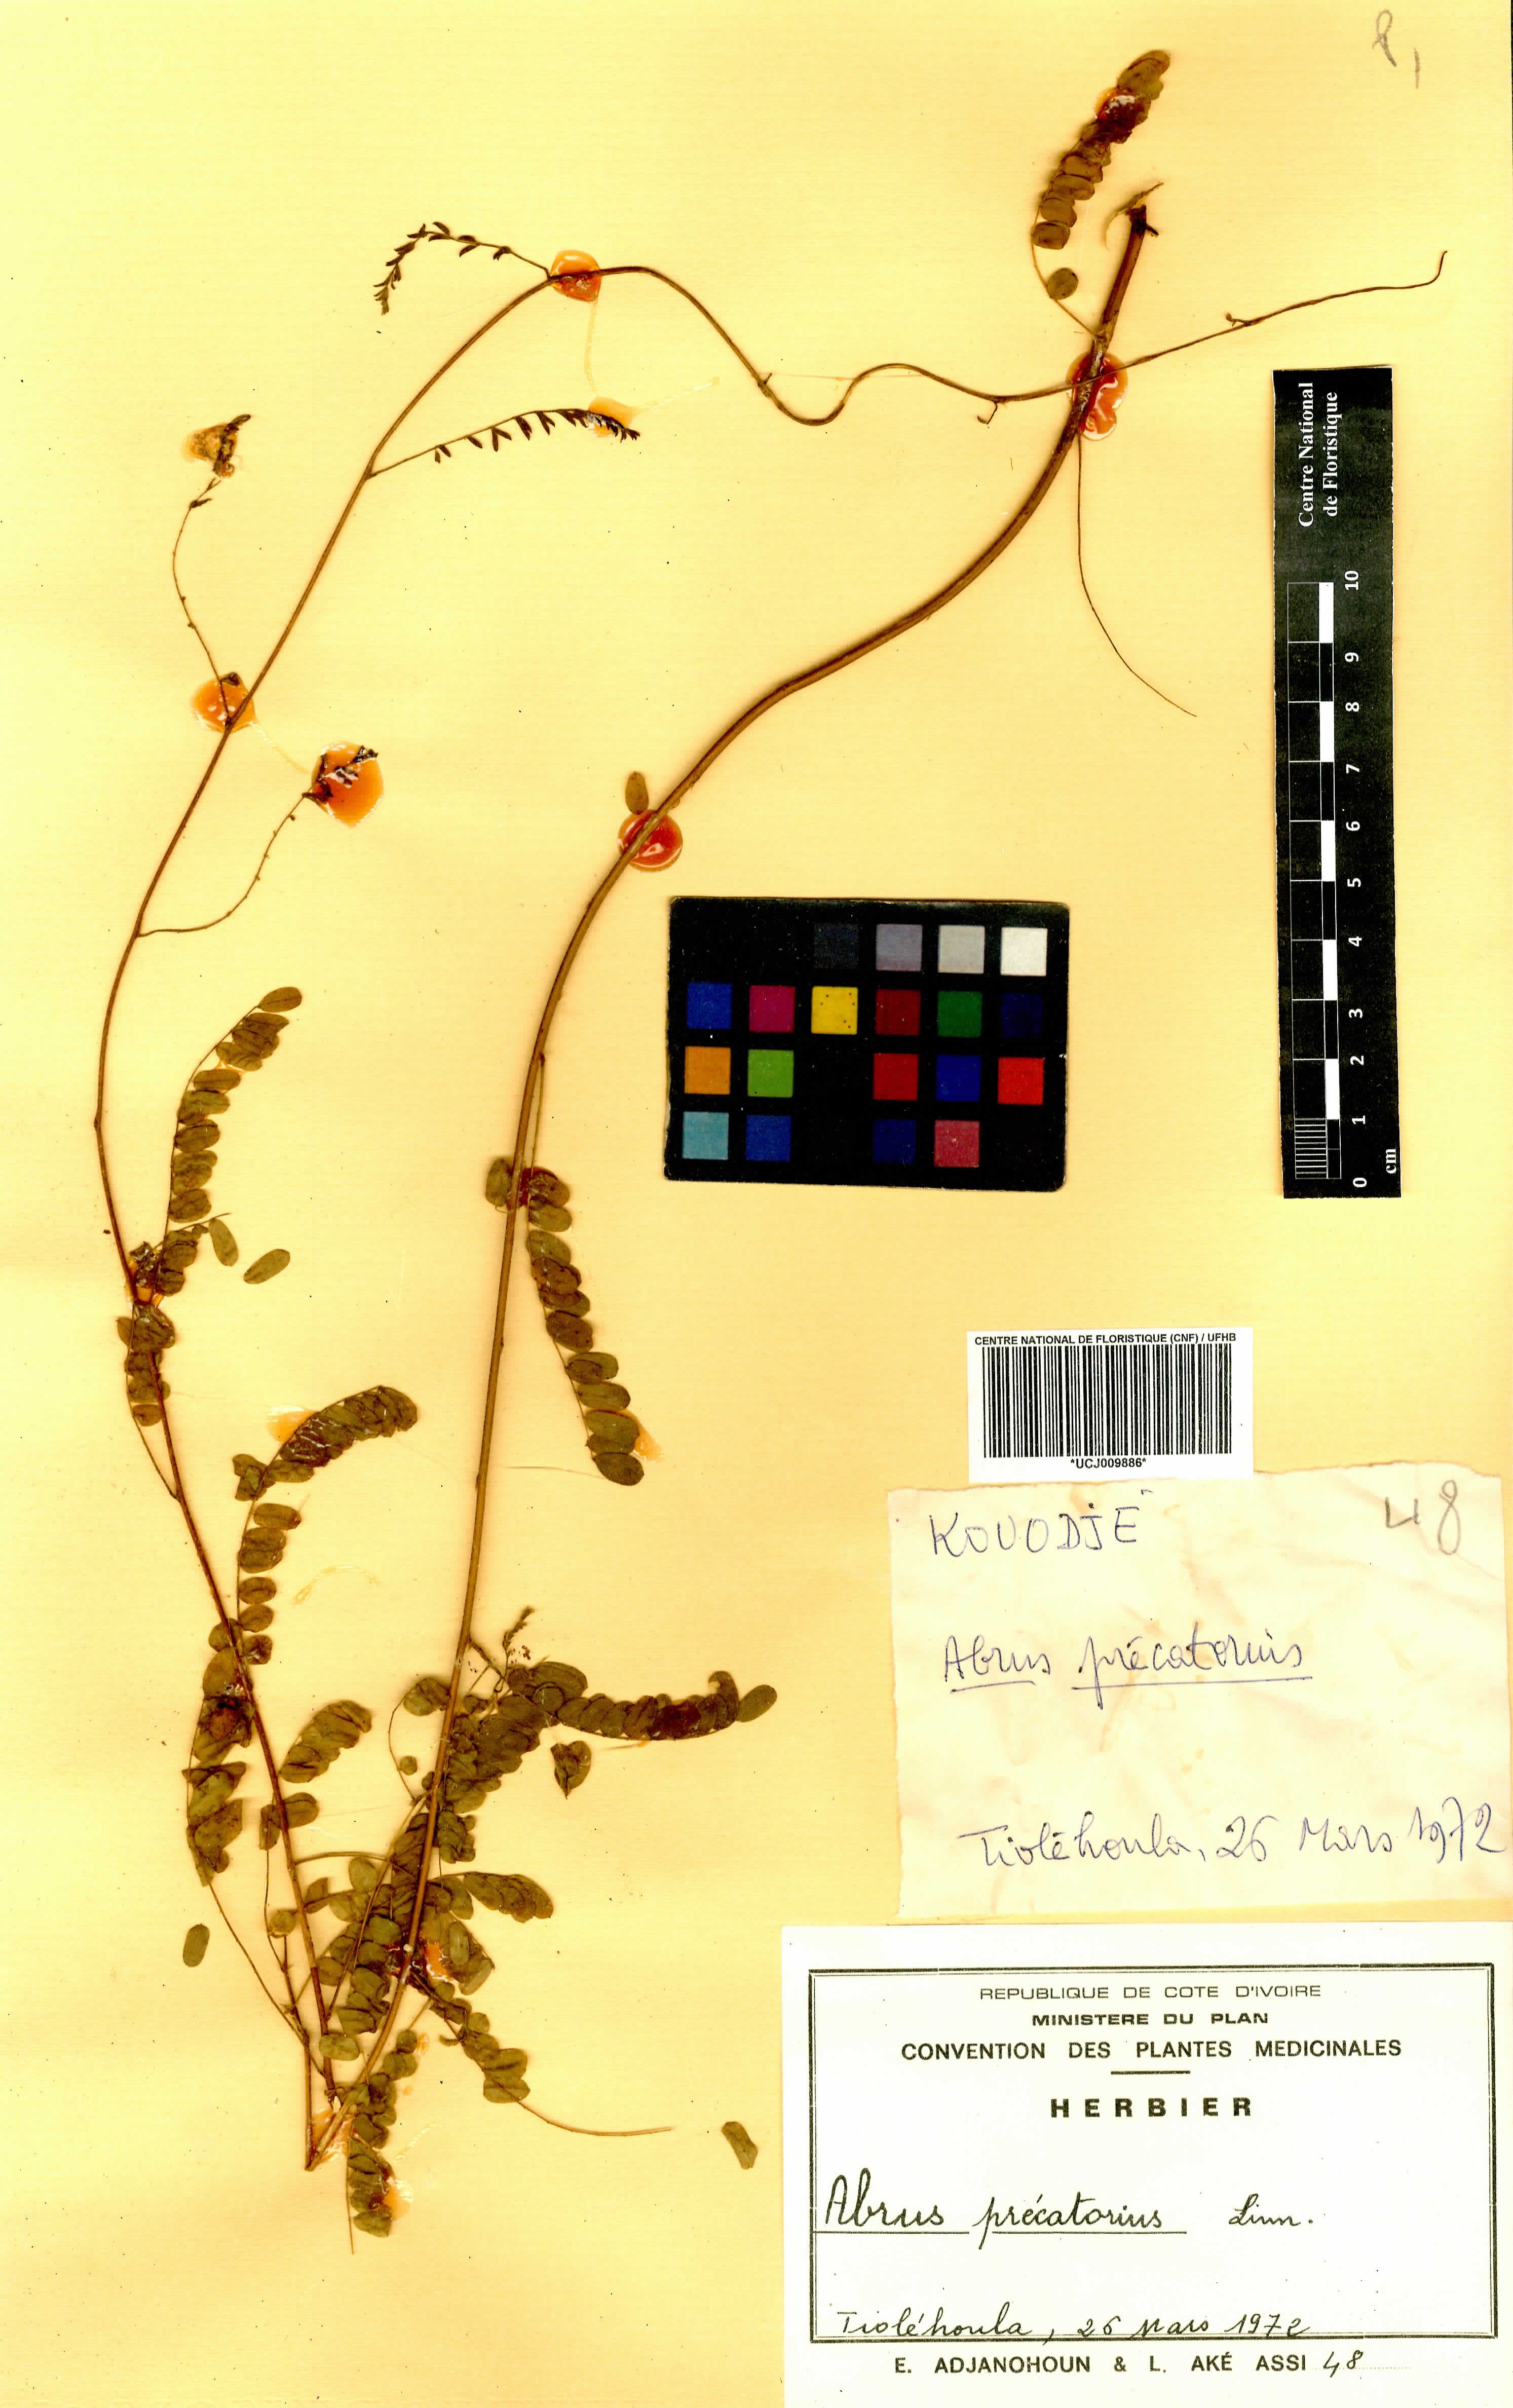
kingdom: Plantae
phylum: Tracheophyta
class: Magnoliopsida
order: Fabales
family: Fabaceae
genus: Abrus
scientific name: Abrus precatorius
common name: Rosarypea
